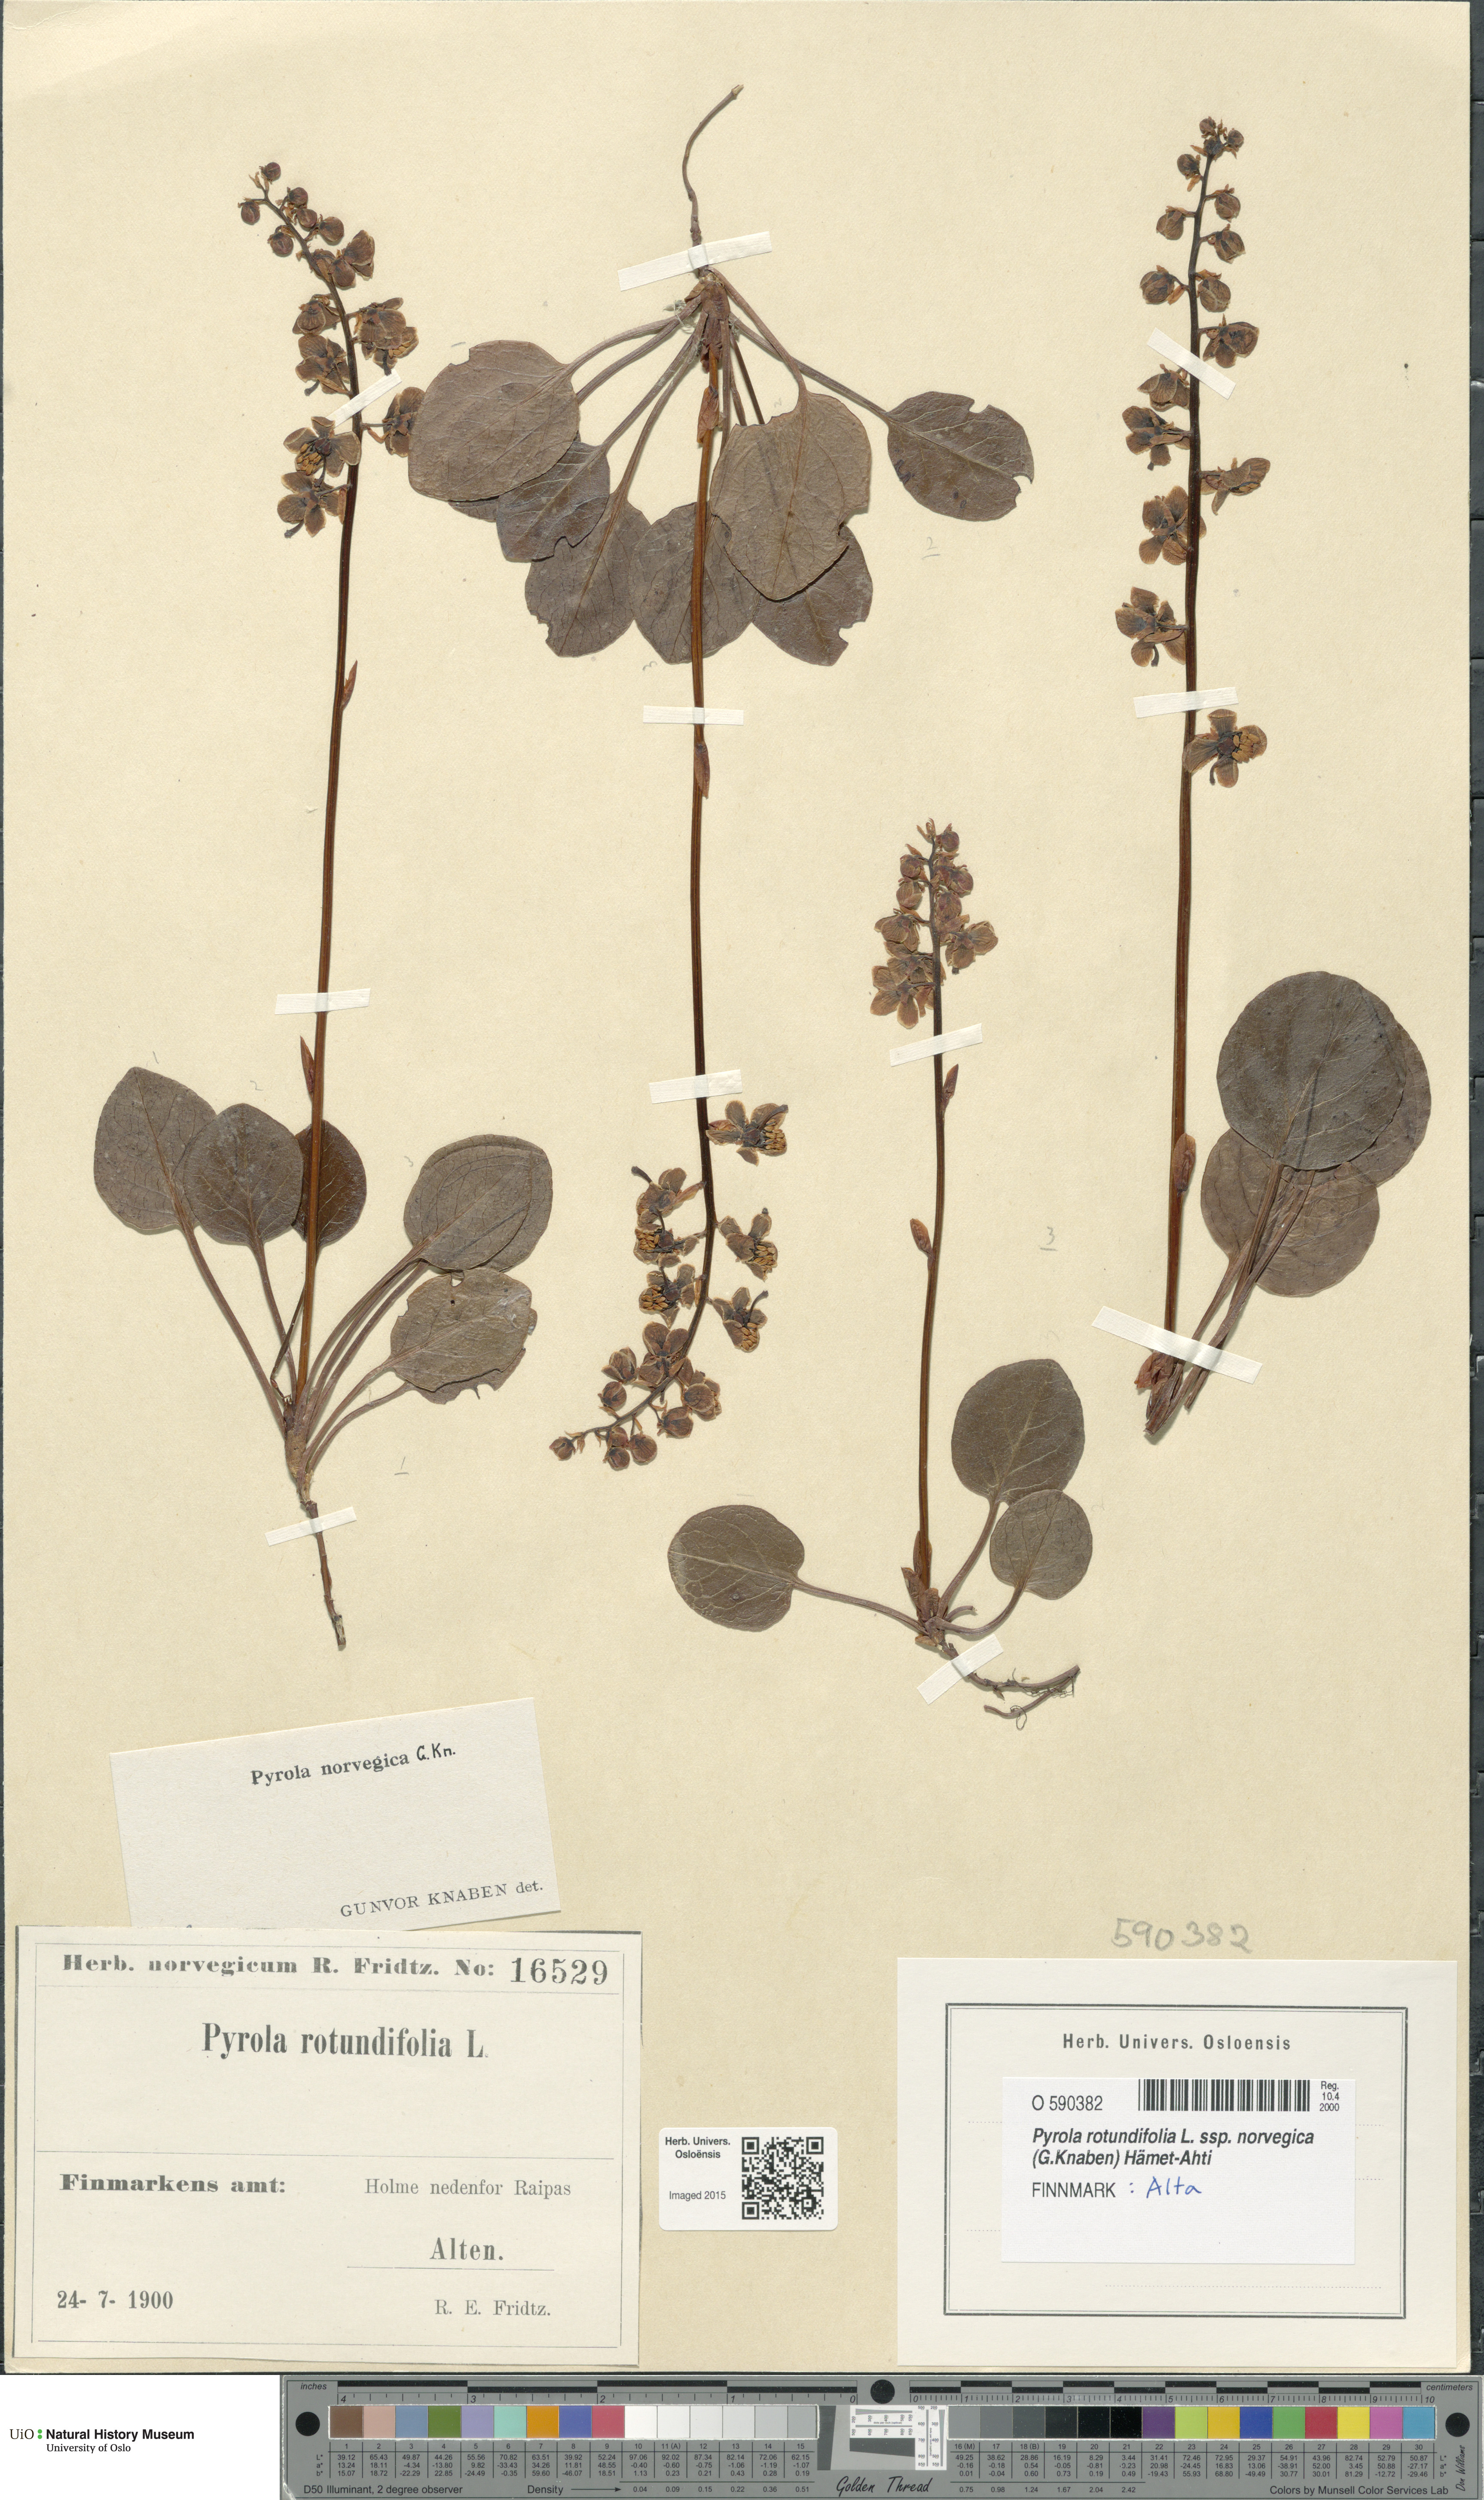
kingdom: Plantae
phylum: Tracheophyta
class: Magnoliopsida
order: Ericales
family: Ericaceae
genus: Pyrola
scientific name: Pyrola rotundifolia
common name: Round-leaved wintergreen
